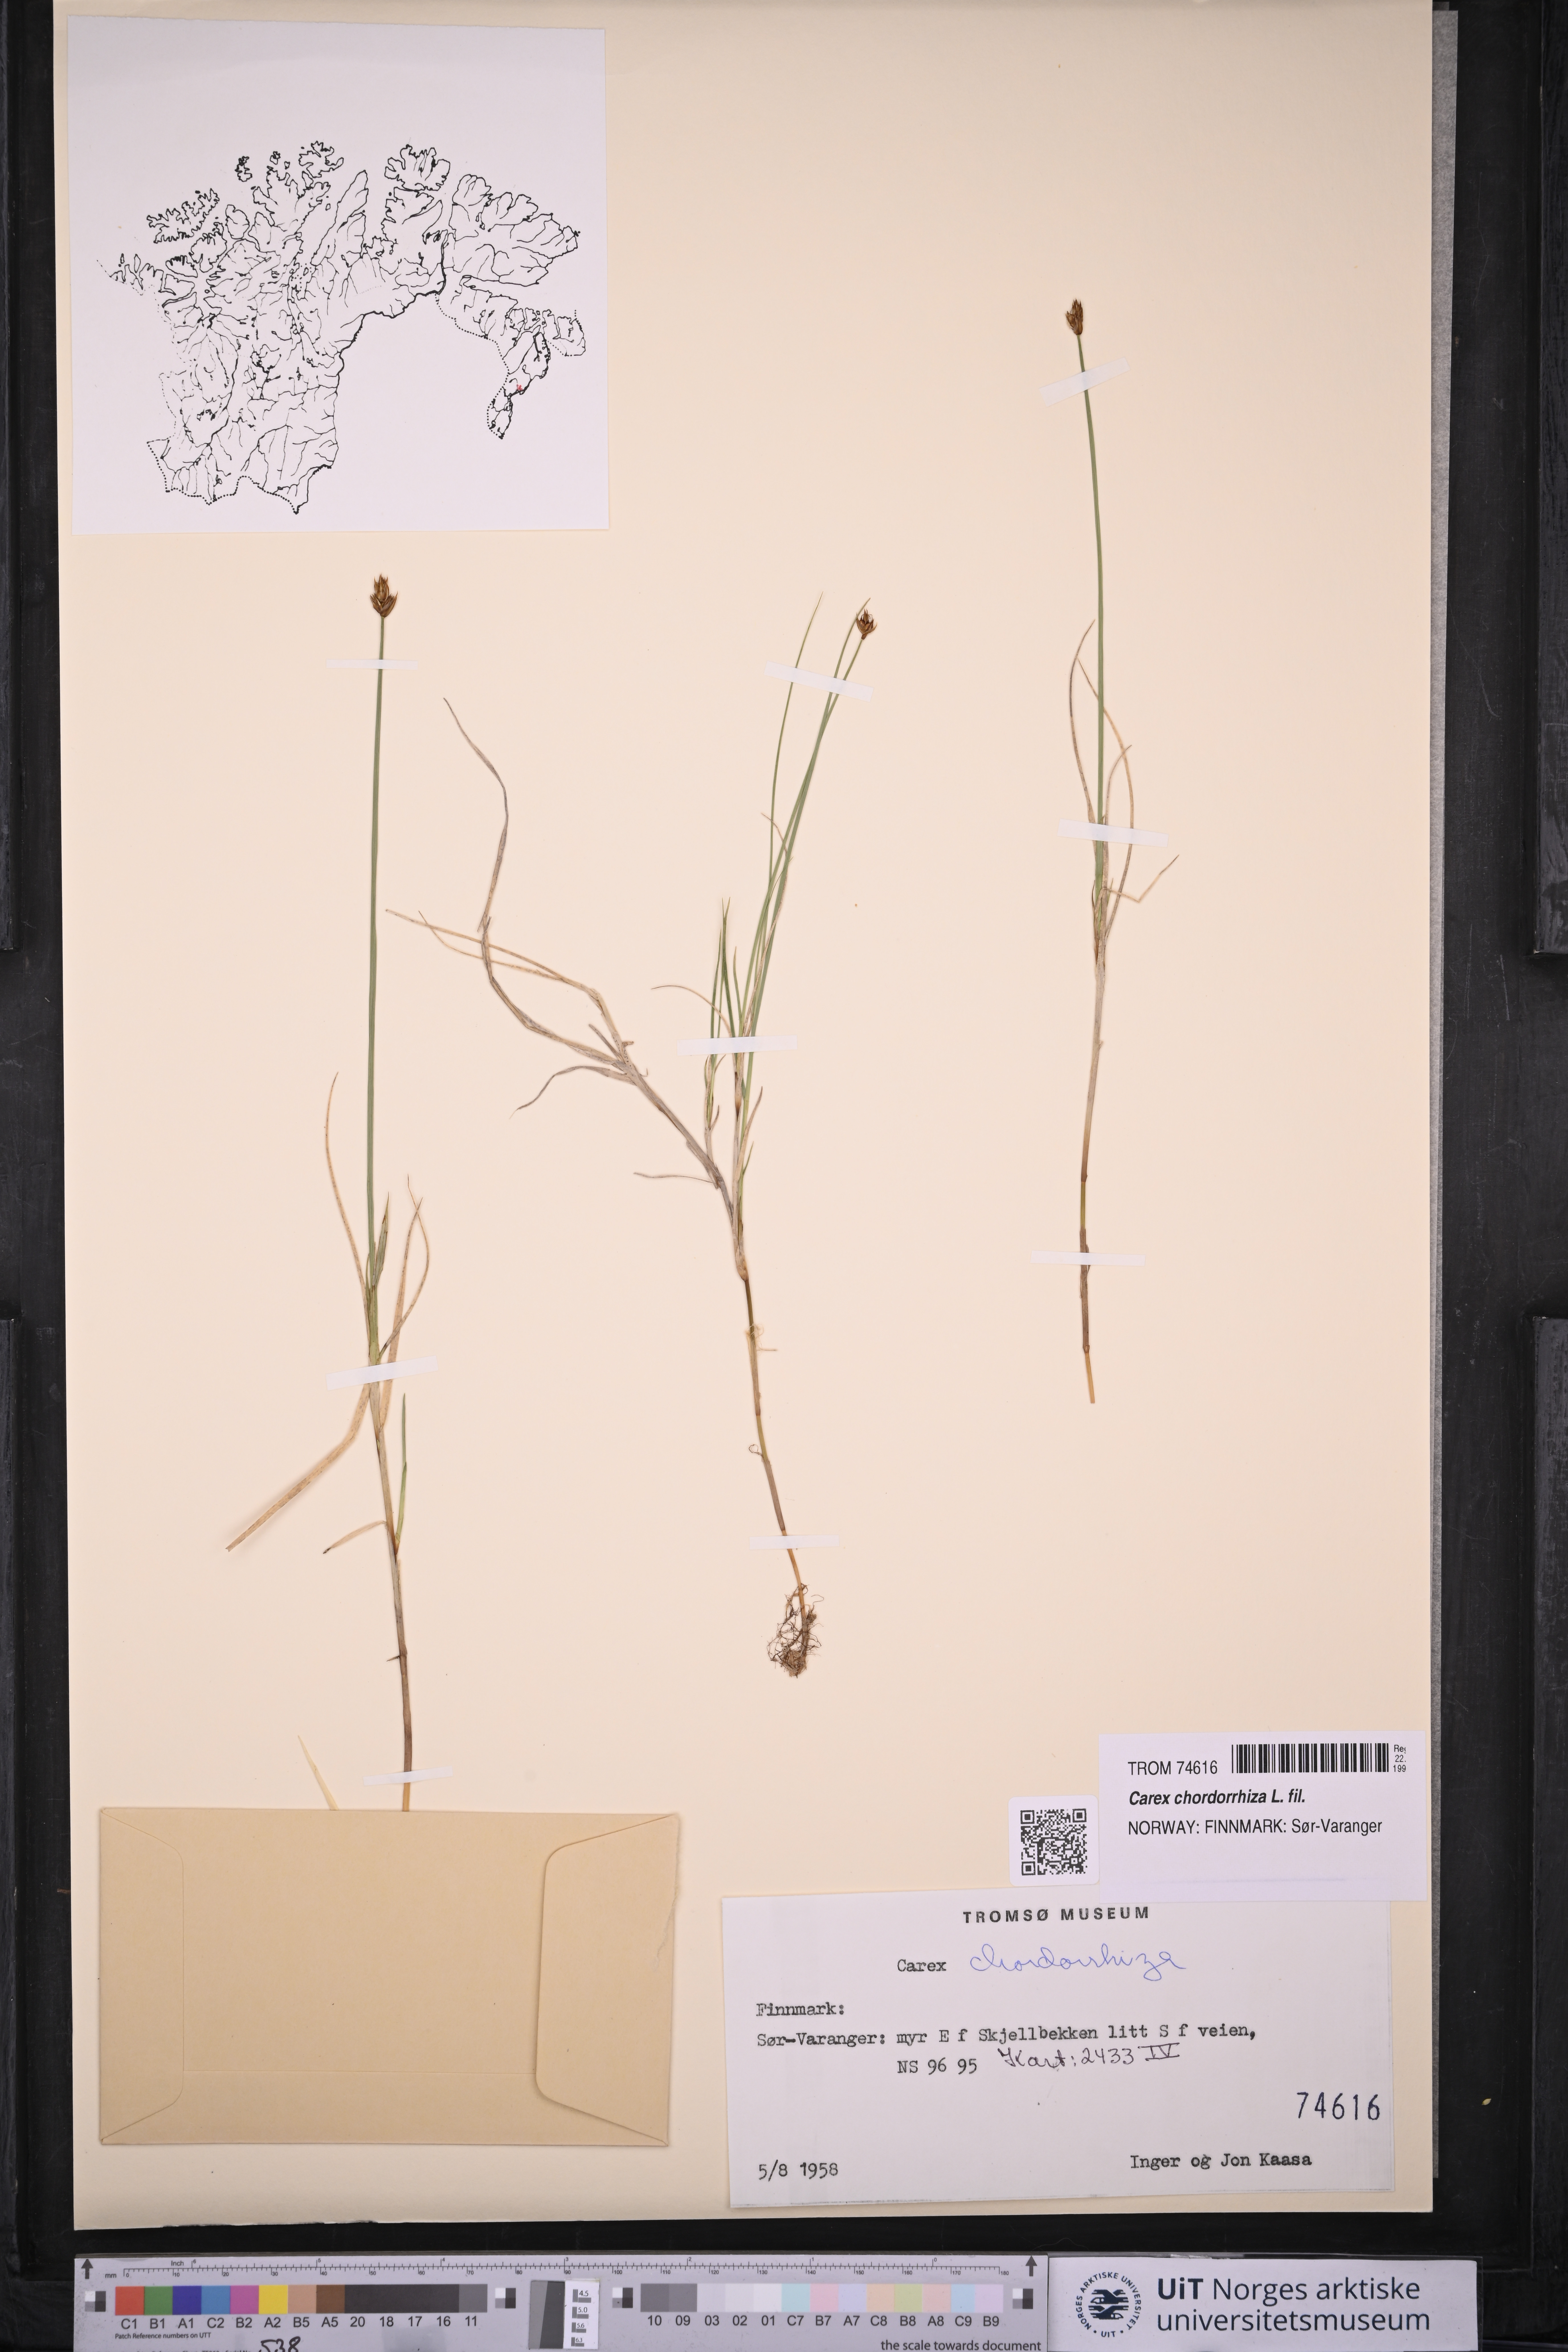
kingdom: Plantae
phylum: Tracheophyta
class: Liliopsida
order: Poales
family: Cyperaceae
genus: Carex
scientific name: Carex chordorrhiza
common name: String sedge
